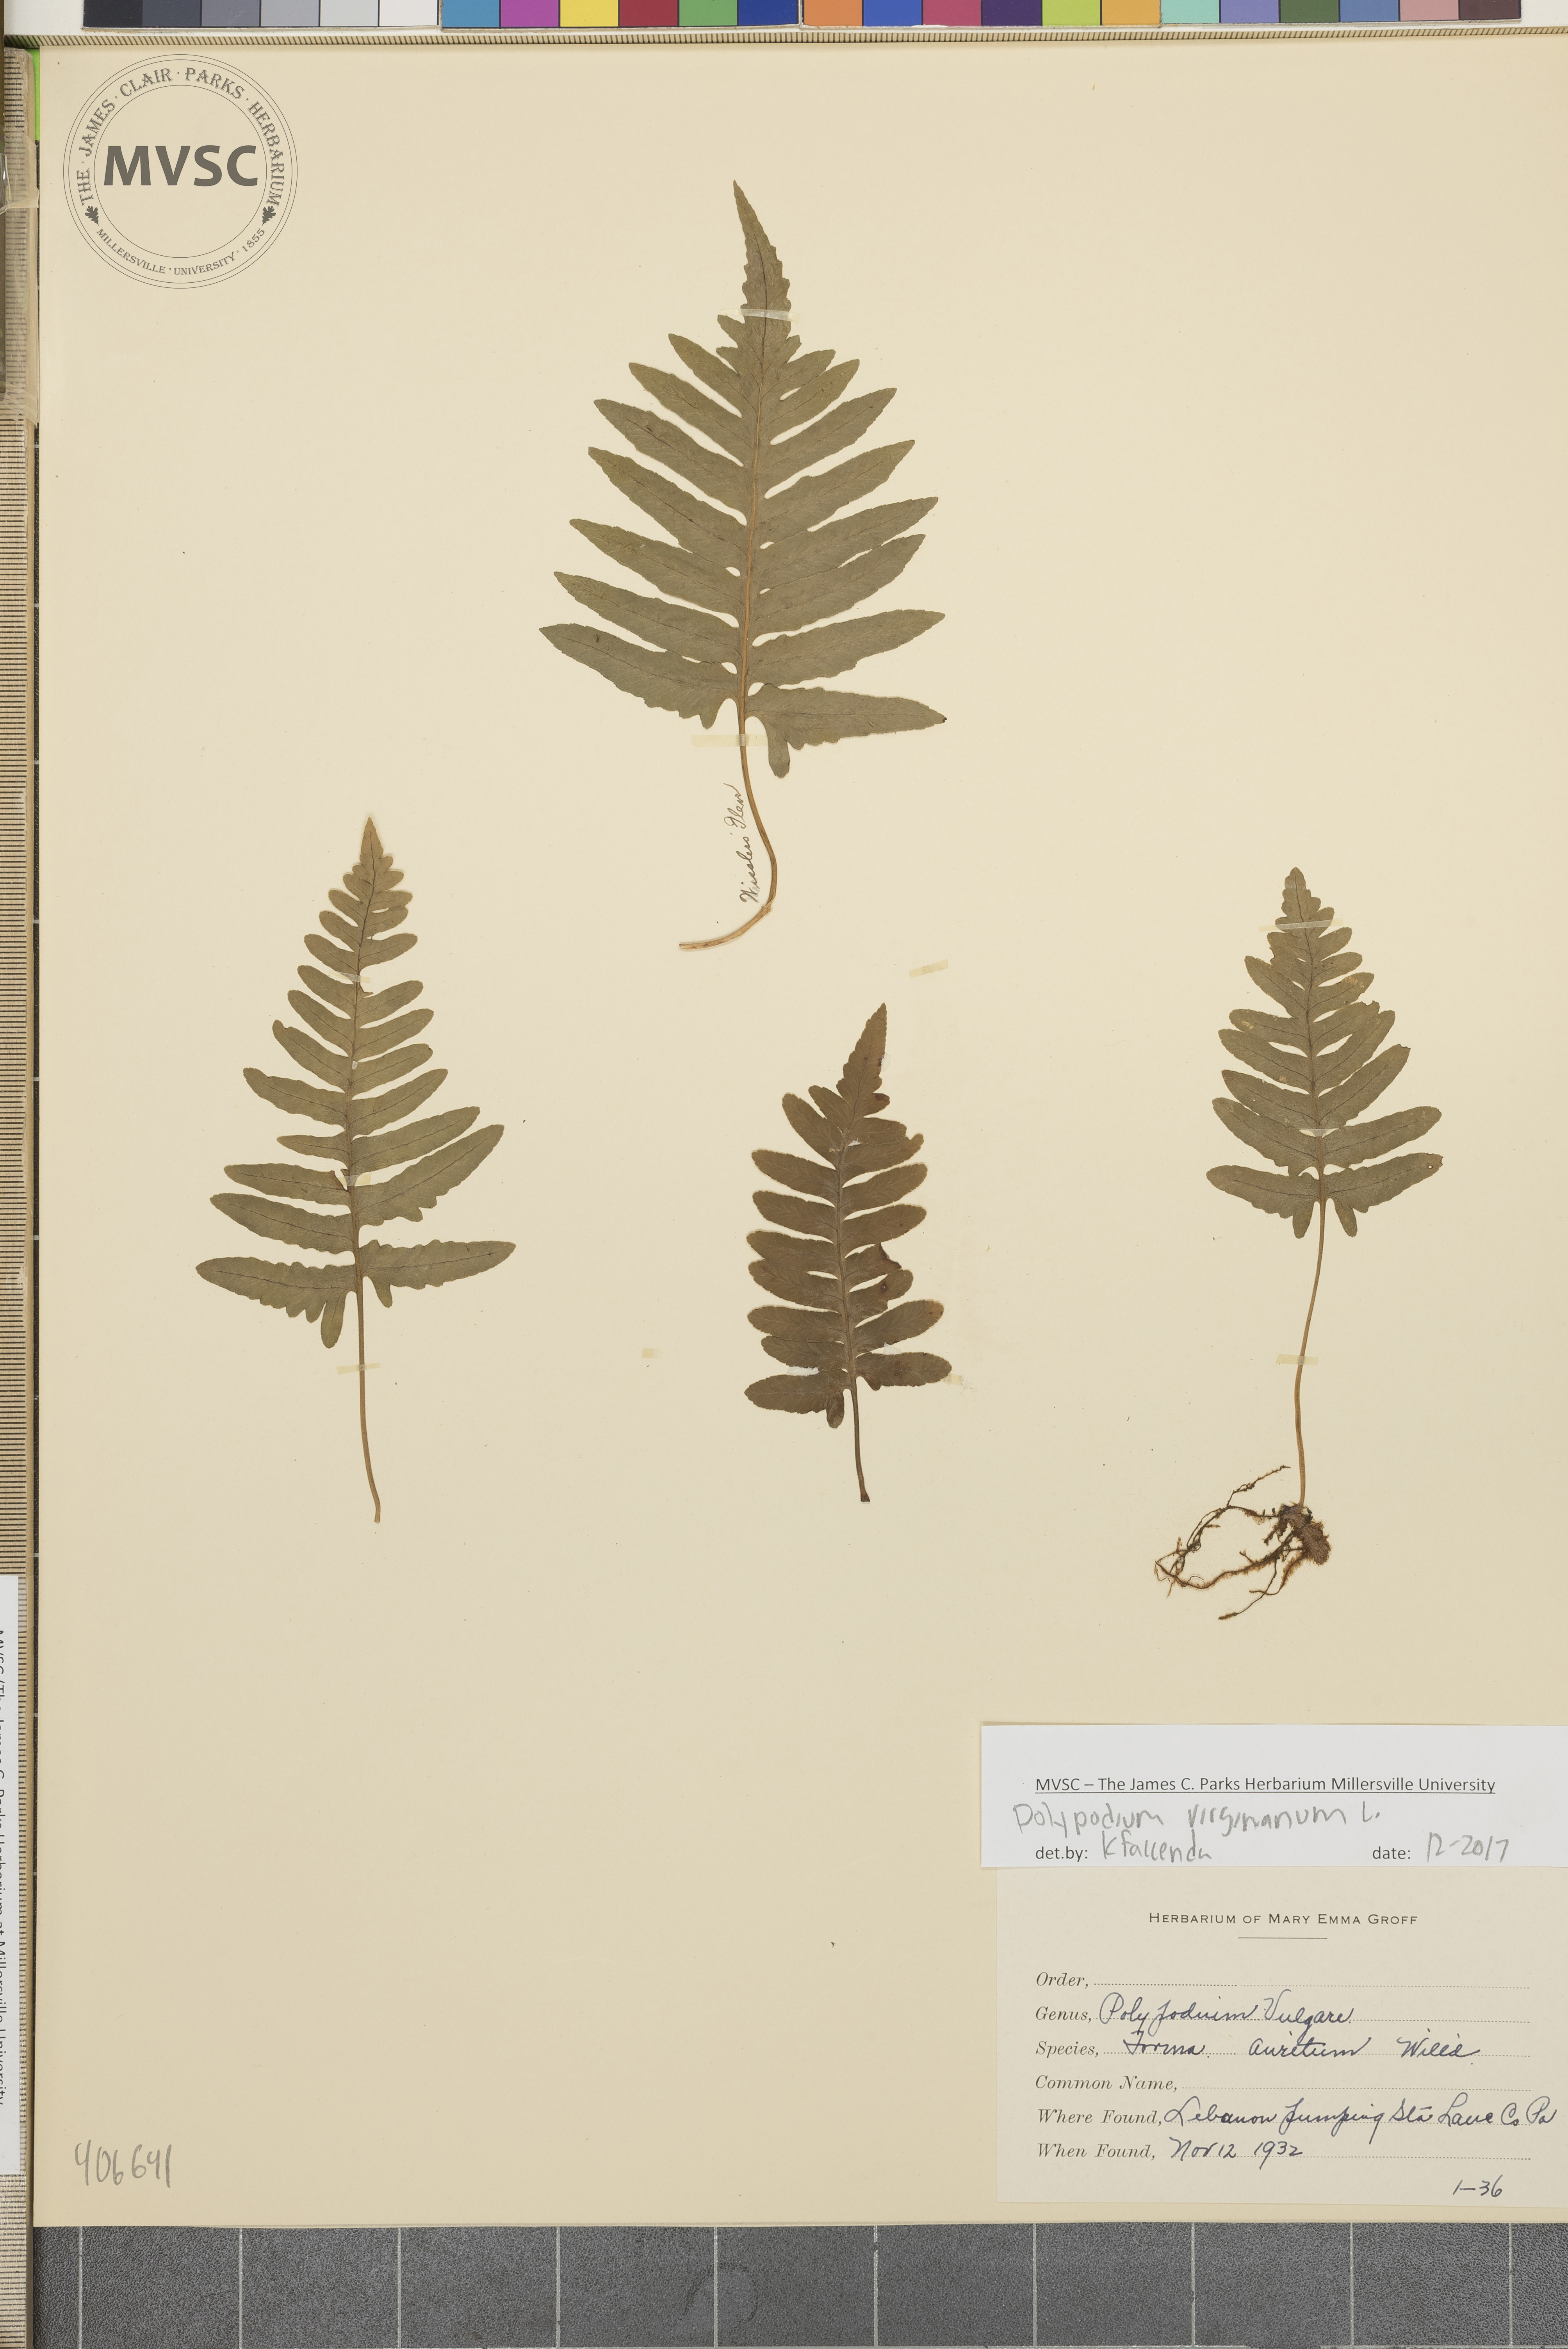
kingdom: Plantae
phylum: Tracheophyta
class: Polypodiopsida
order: Polypodiales
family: Polypodiaceae
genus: Polypodium
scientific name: Polypodium virginianum
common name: American wall fern
